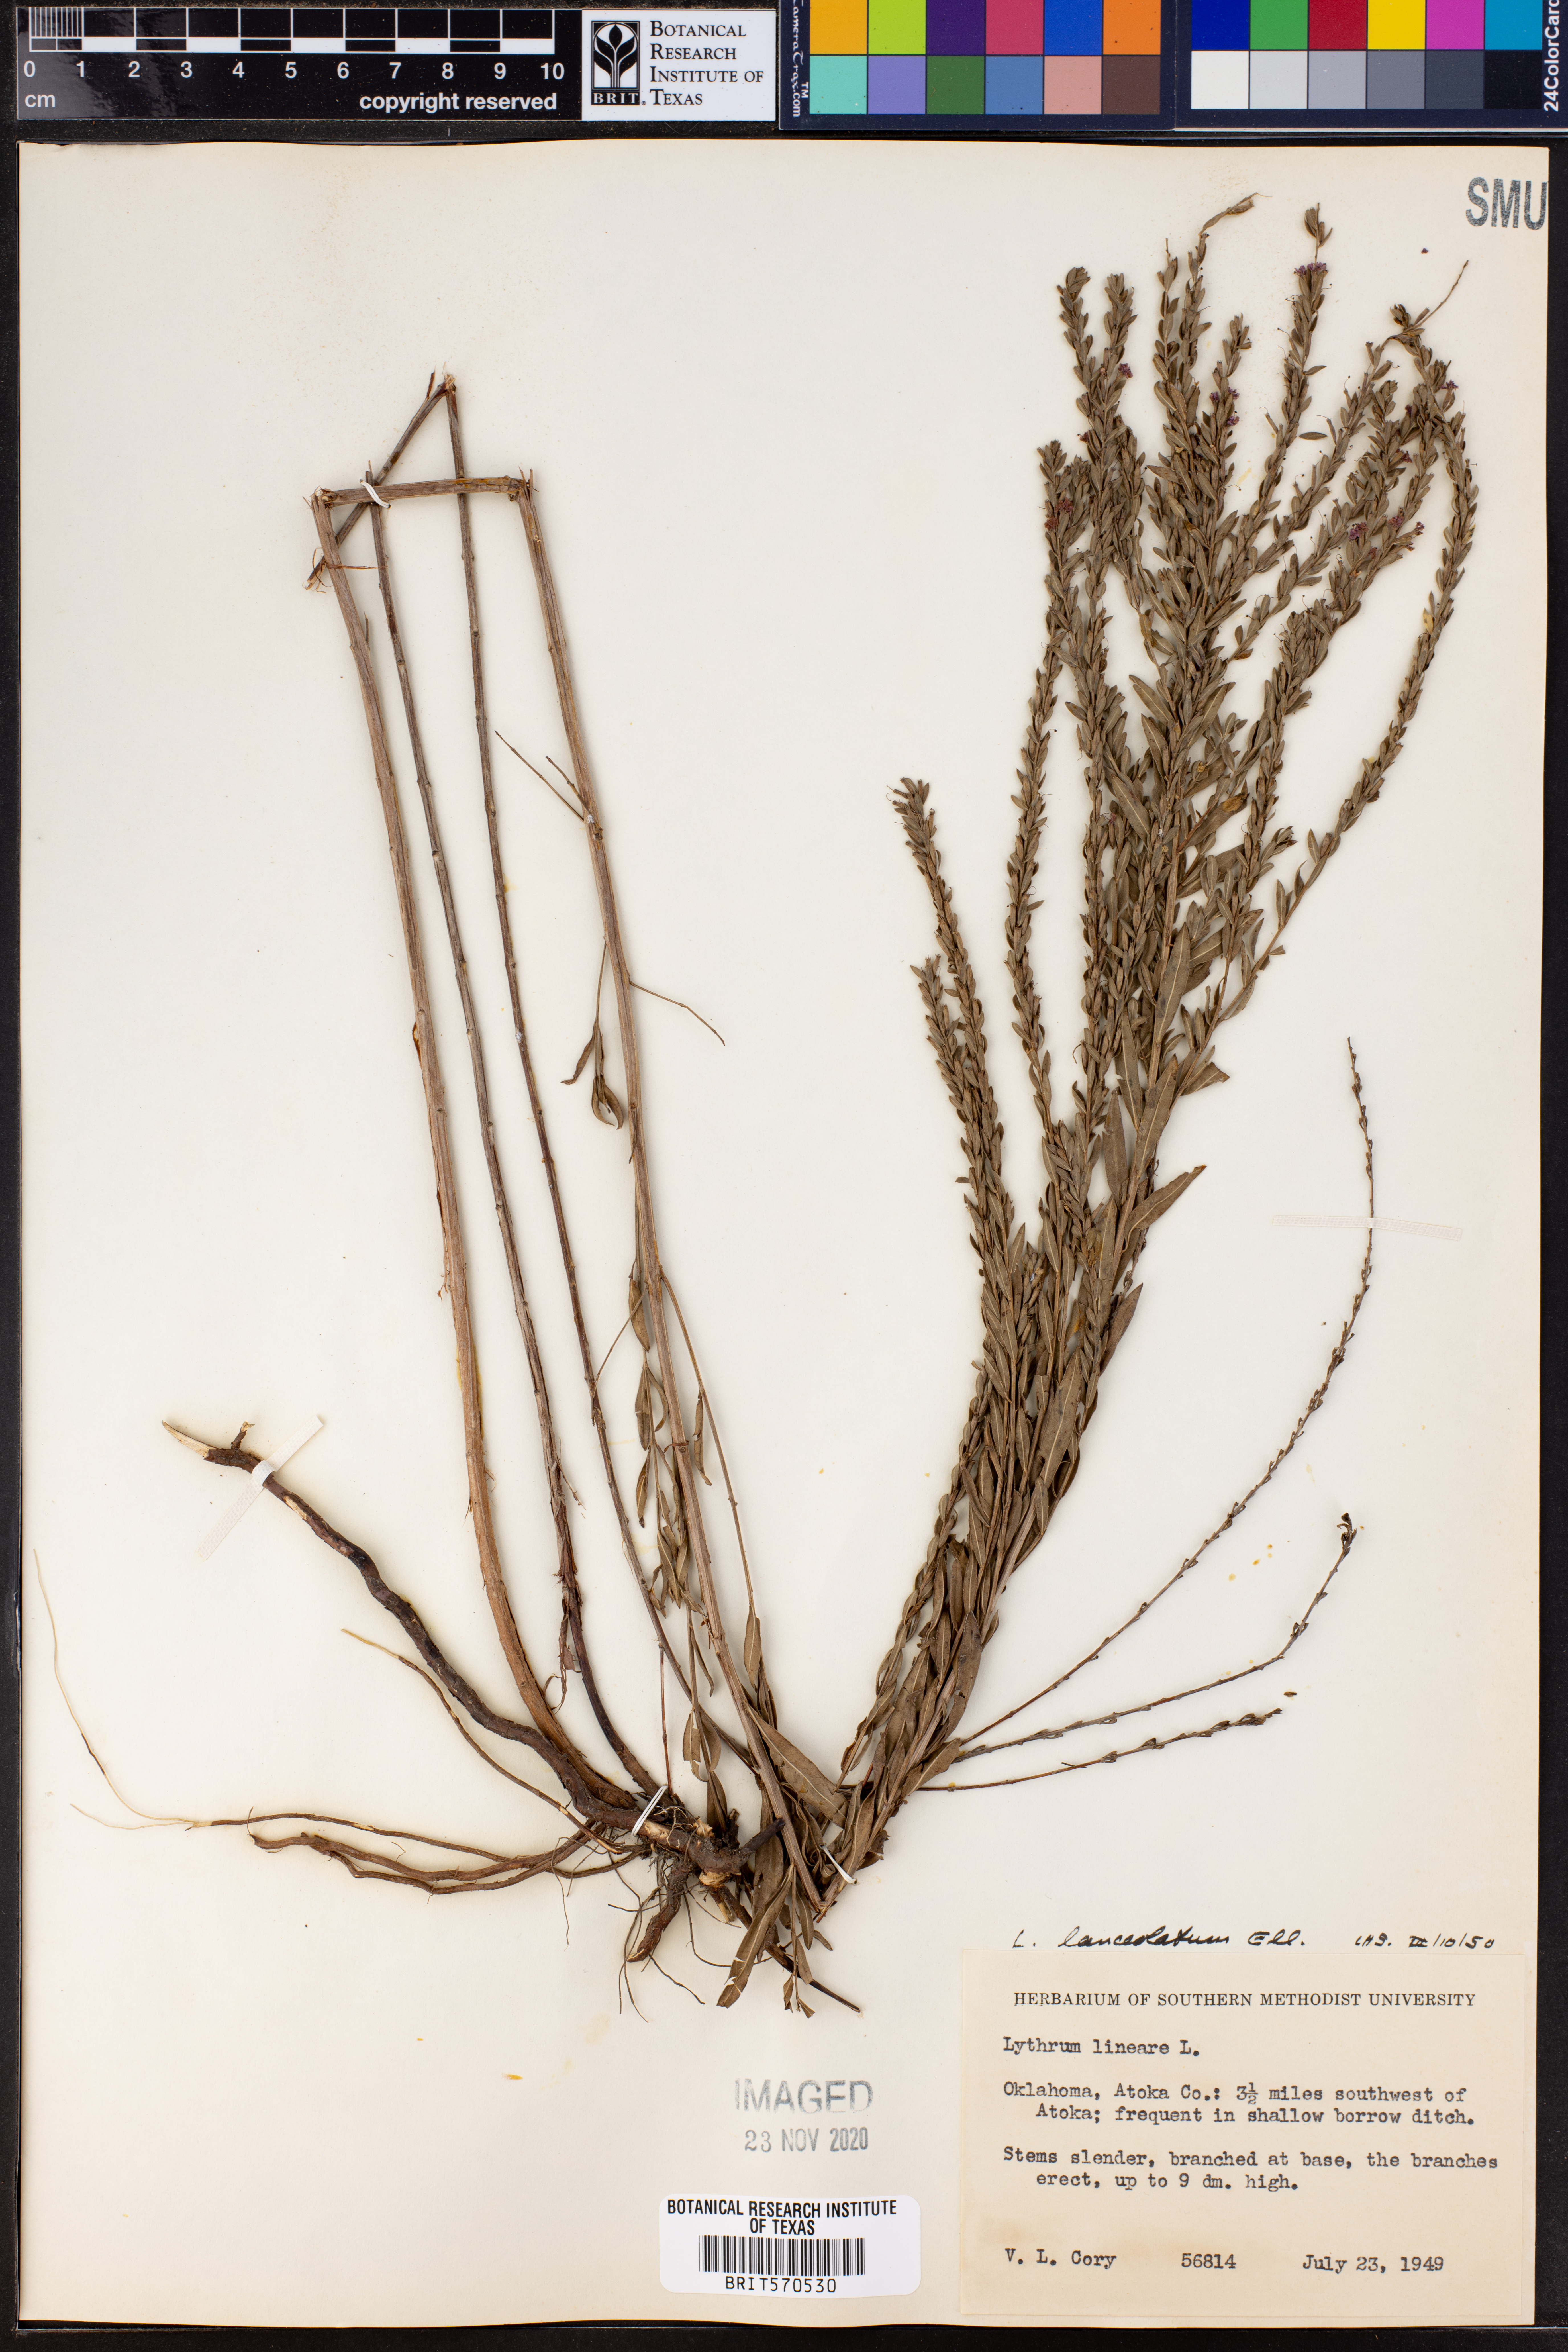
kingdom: Plantae
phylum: Tracheophyta
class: Magnoliopsida
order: Myrtales
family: Lythraceae
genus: Lythrum
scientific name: Lythrum alatum
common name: Winged loosestrife
